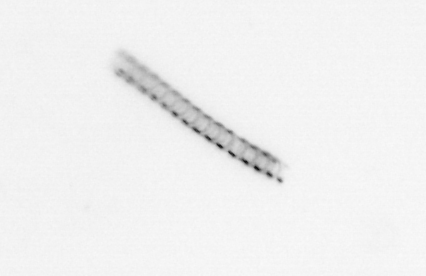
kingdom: Chromista
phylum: Ochrophyta
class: Bacillariophyceae
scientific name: Bacillariophyceae
